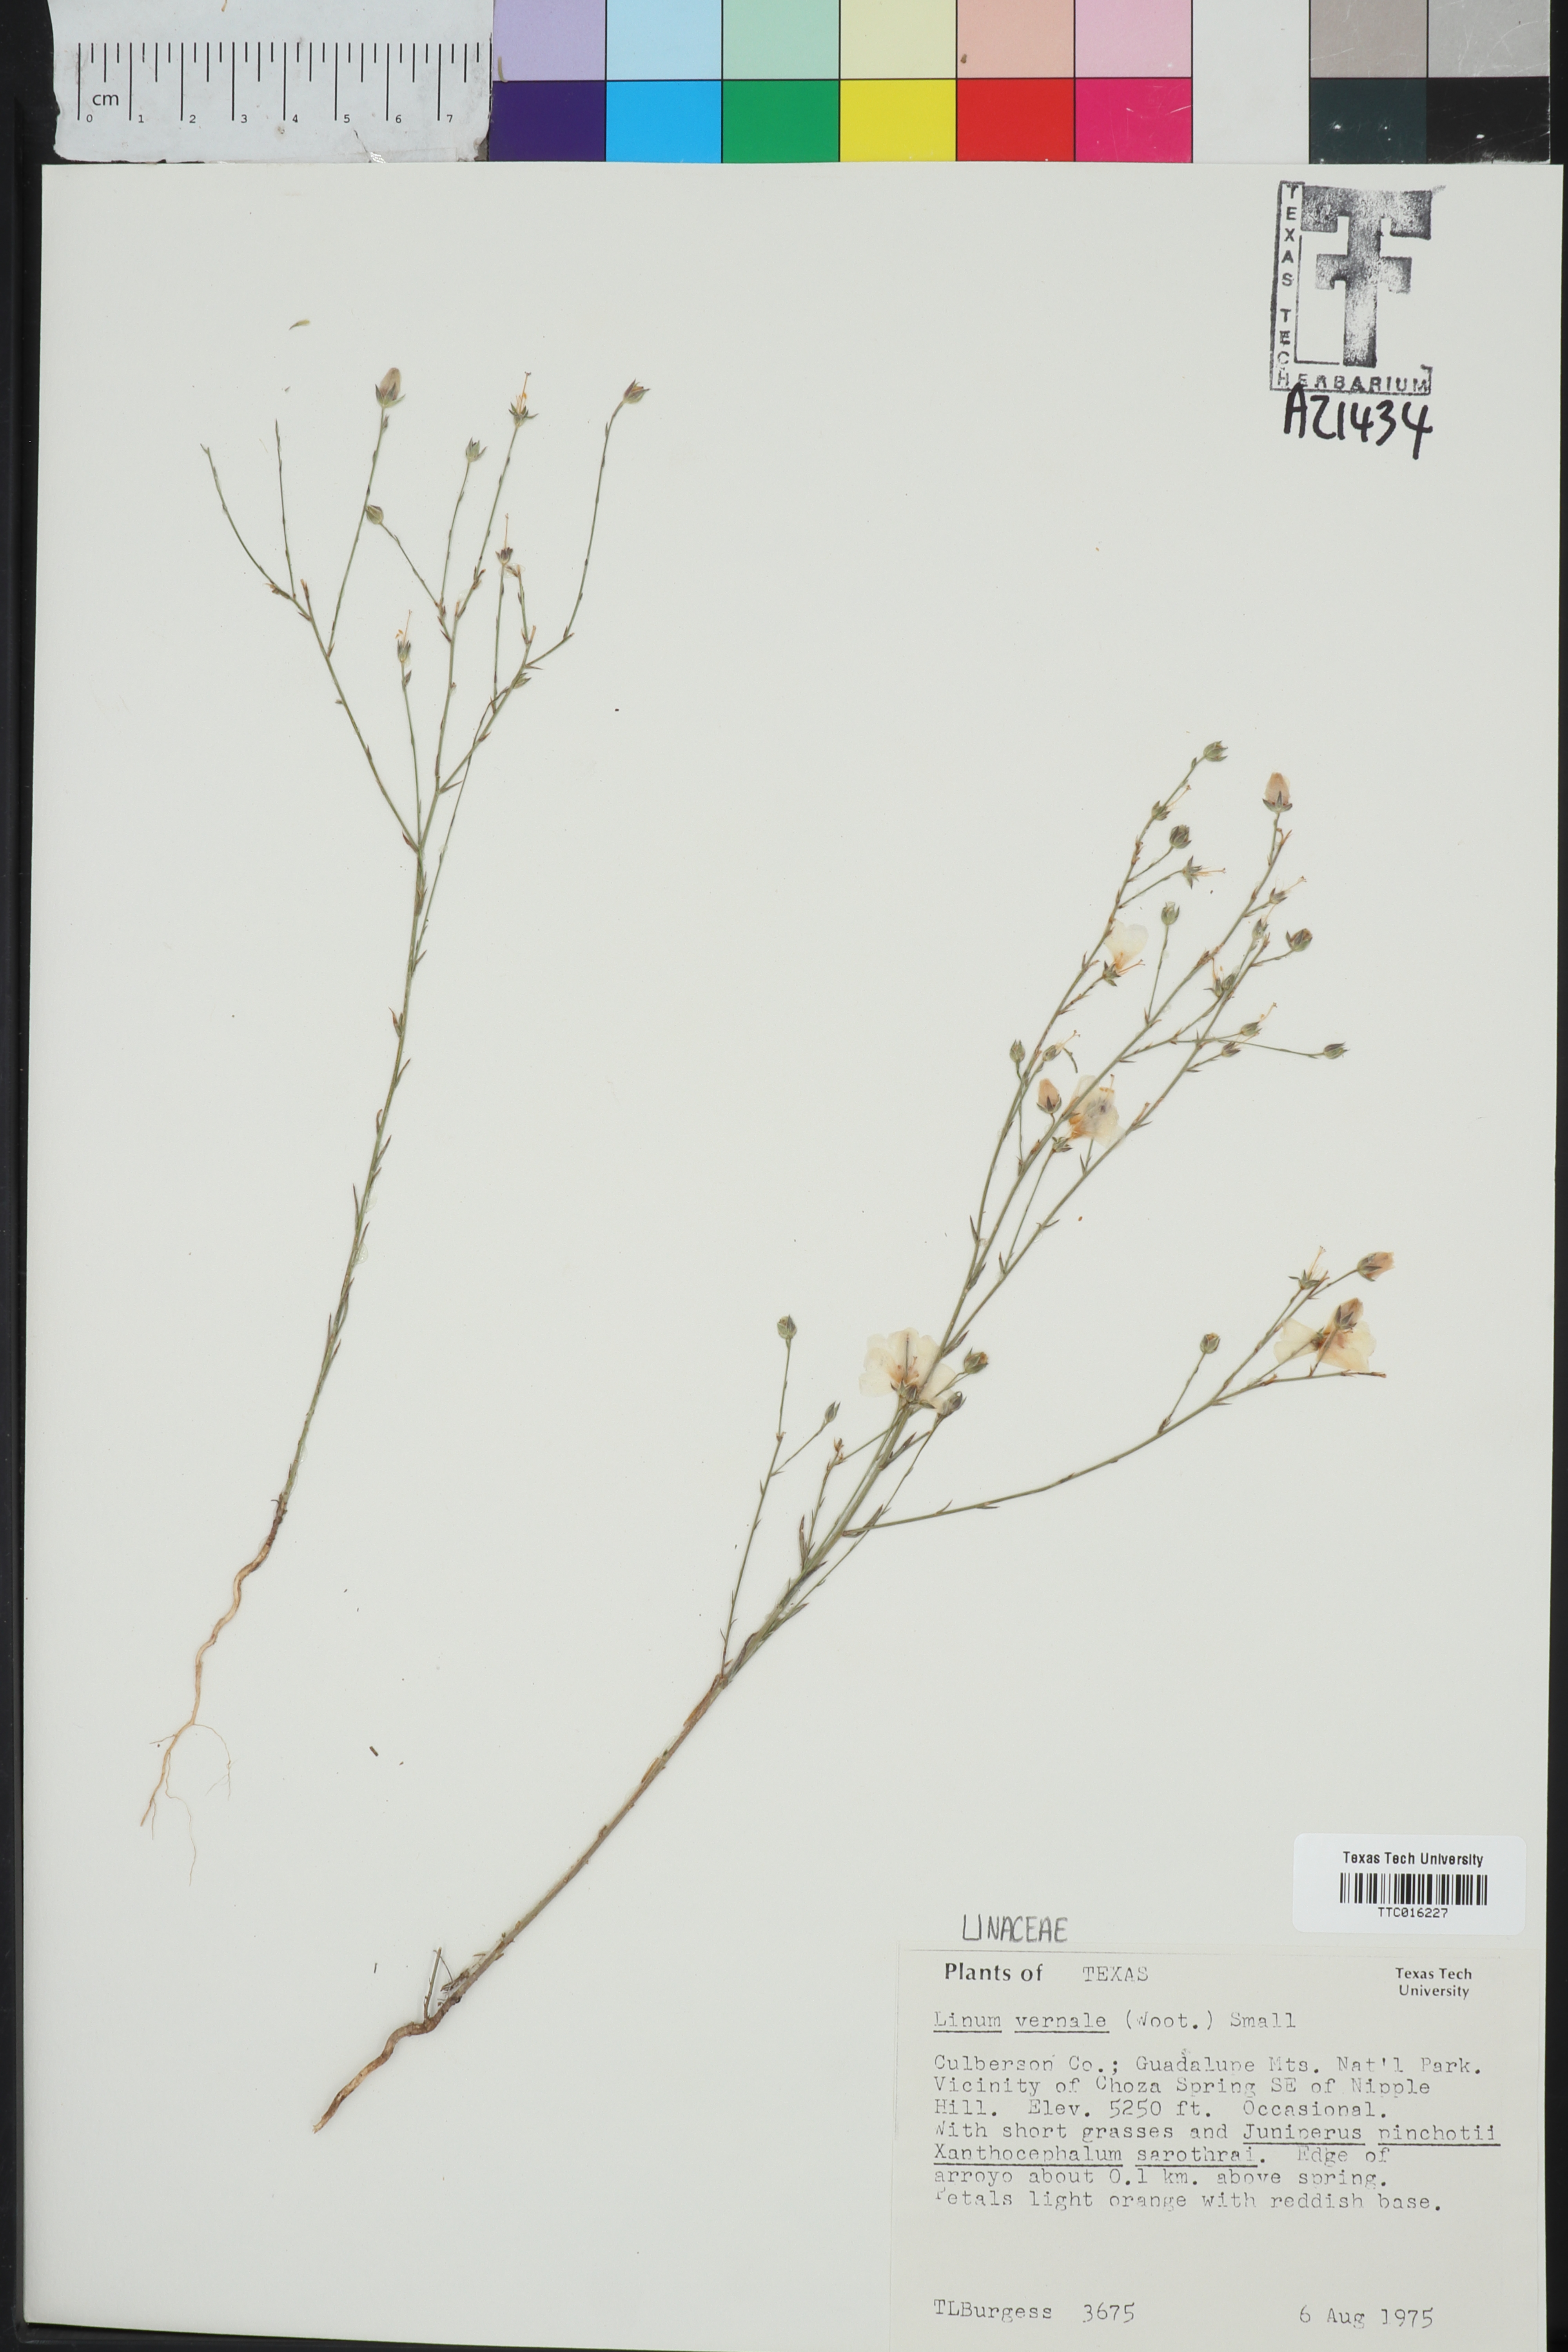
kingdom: Plantae
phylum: Tracheophyta
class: Magnoliopsida
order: Malpighiales
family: Linaceae
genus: Linum
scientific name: Linum vernale
